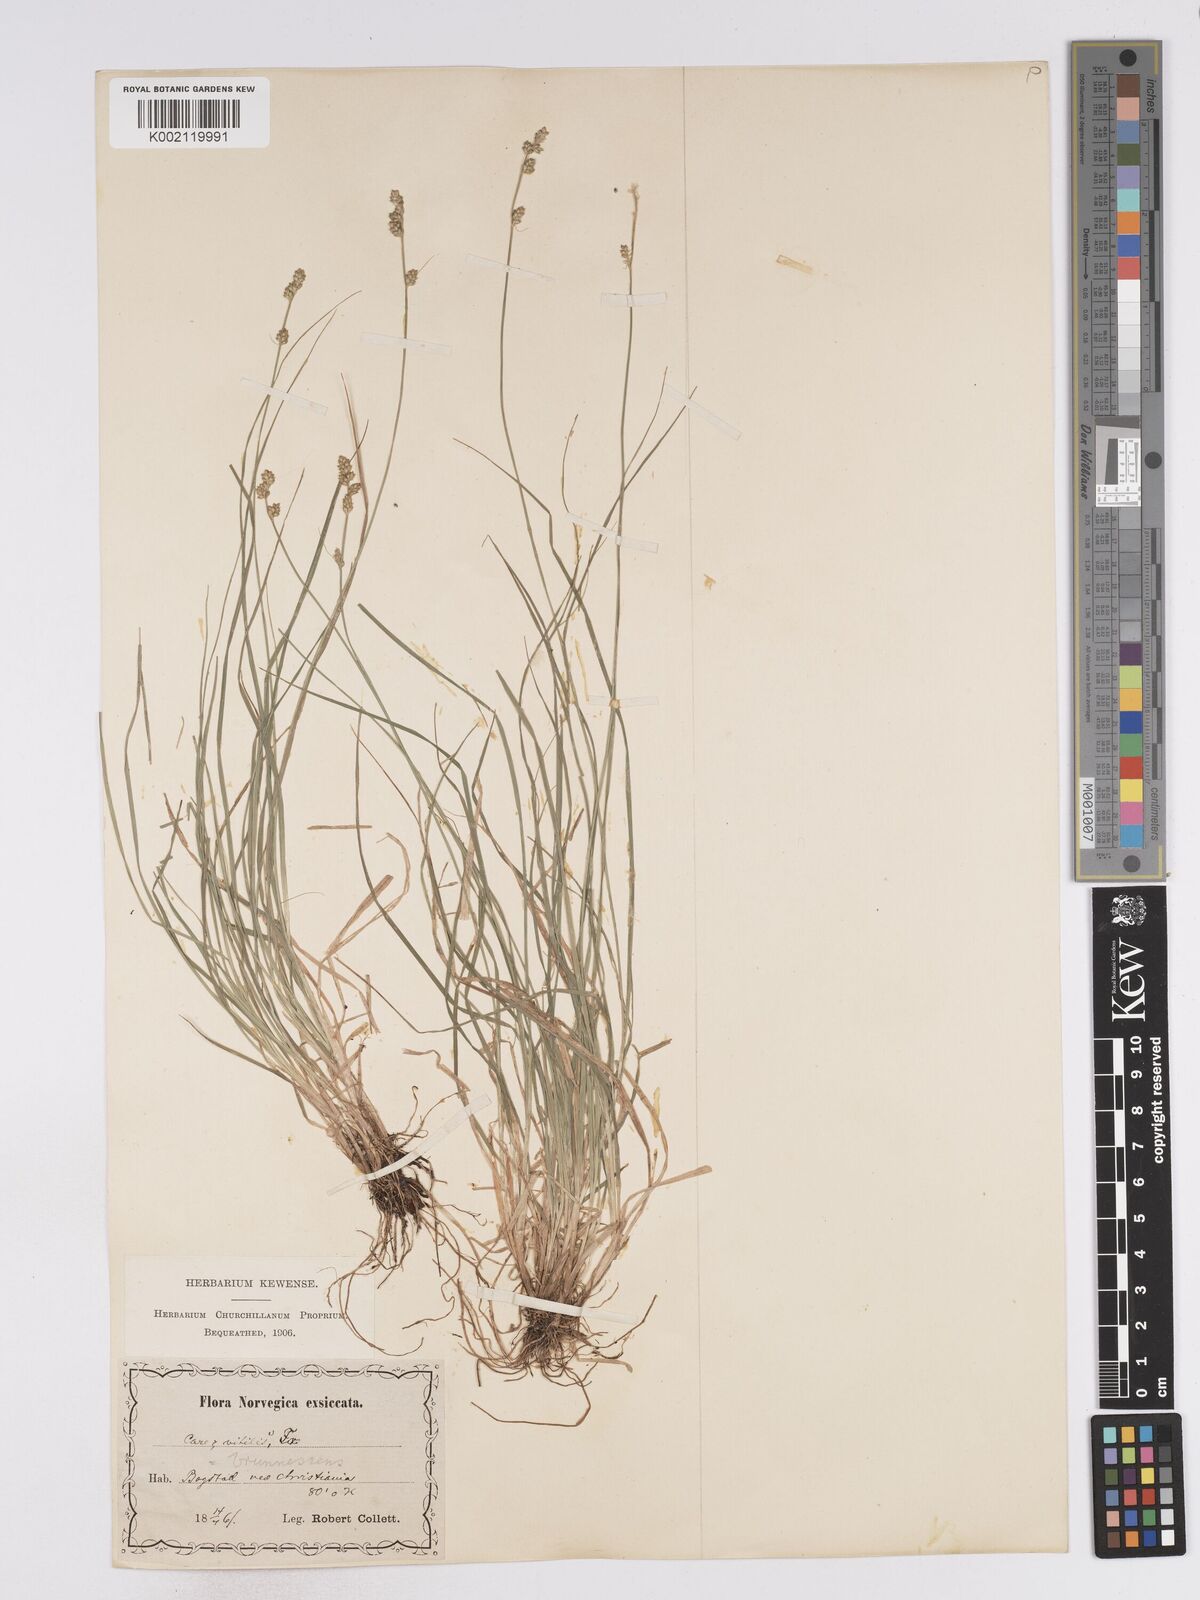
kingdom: Plantae
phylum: Tracheophyta
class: Liliopsida
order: Poales
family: Cyperaceae
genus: Carex
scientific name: Carex brunnescens
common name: Brown sedge
